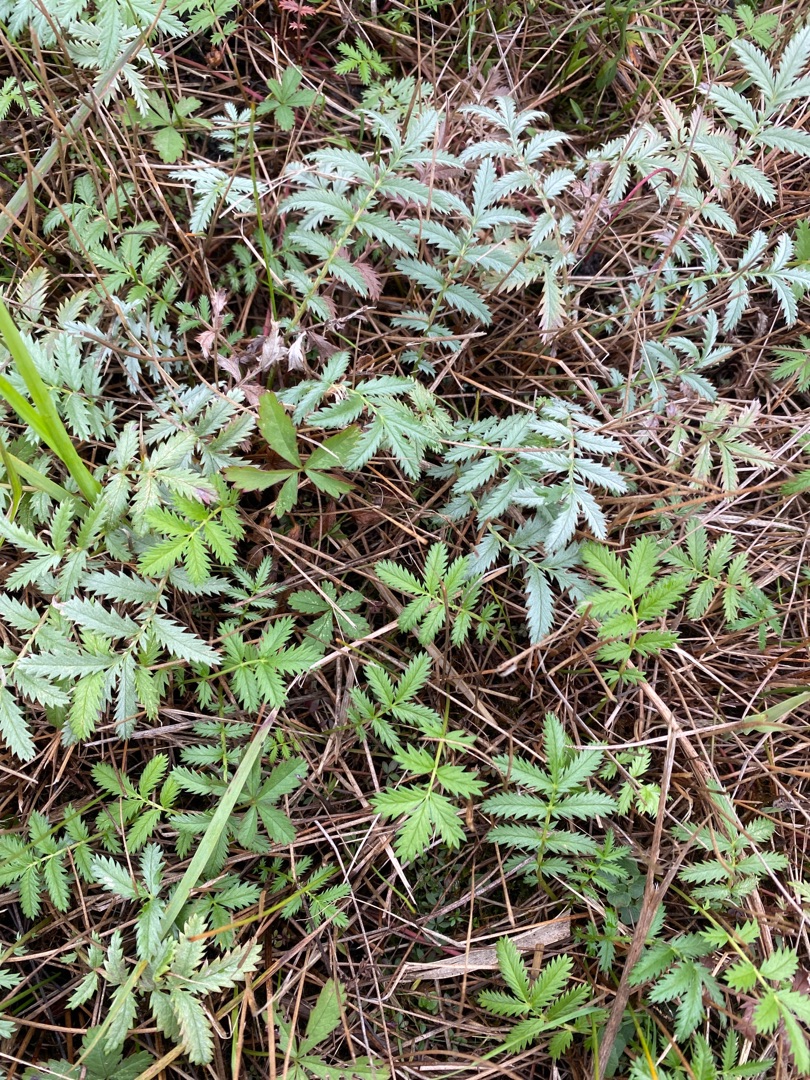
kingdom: Plantae
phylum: Tracheophyta
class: Magnoliopsida
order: Rosales
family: Rosaceae
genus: Argentina
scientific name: Argentina anserina
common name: Gåsepotentil
